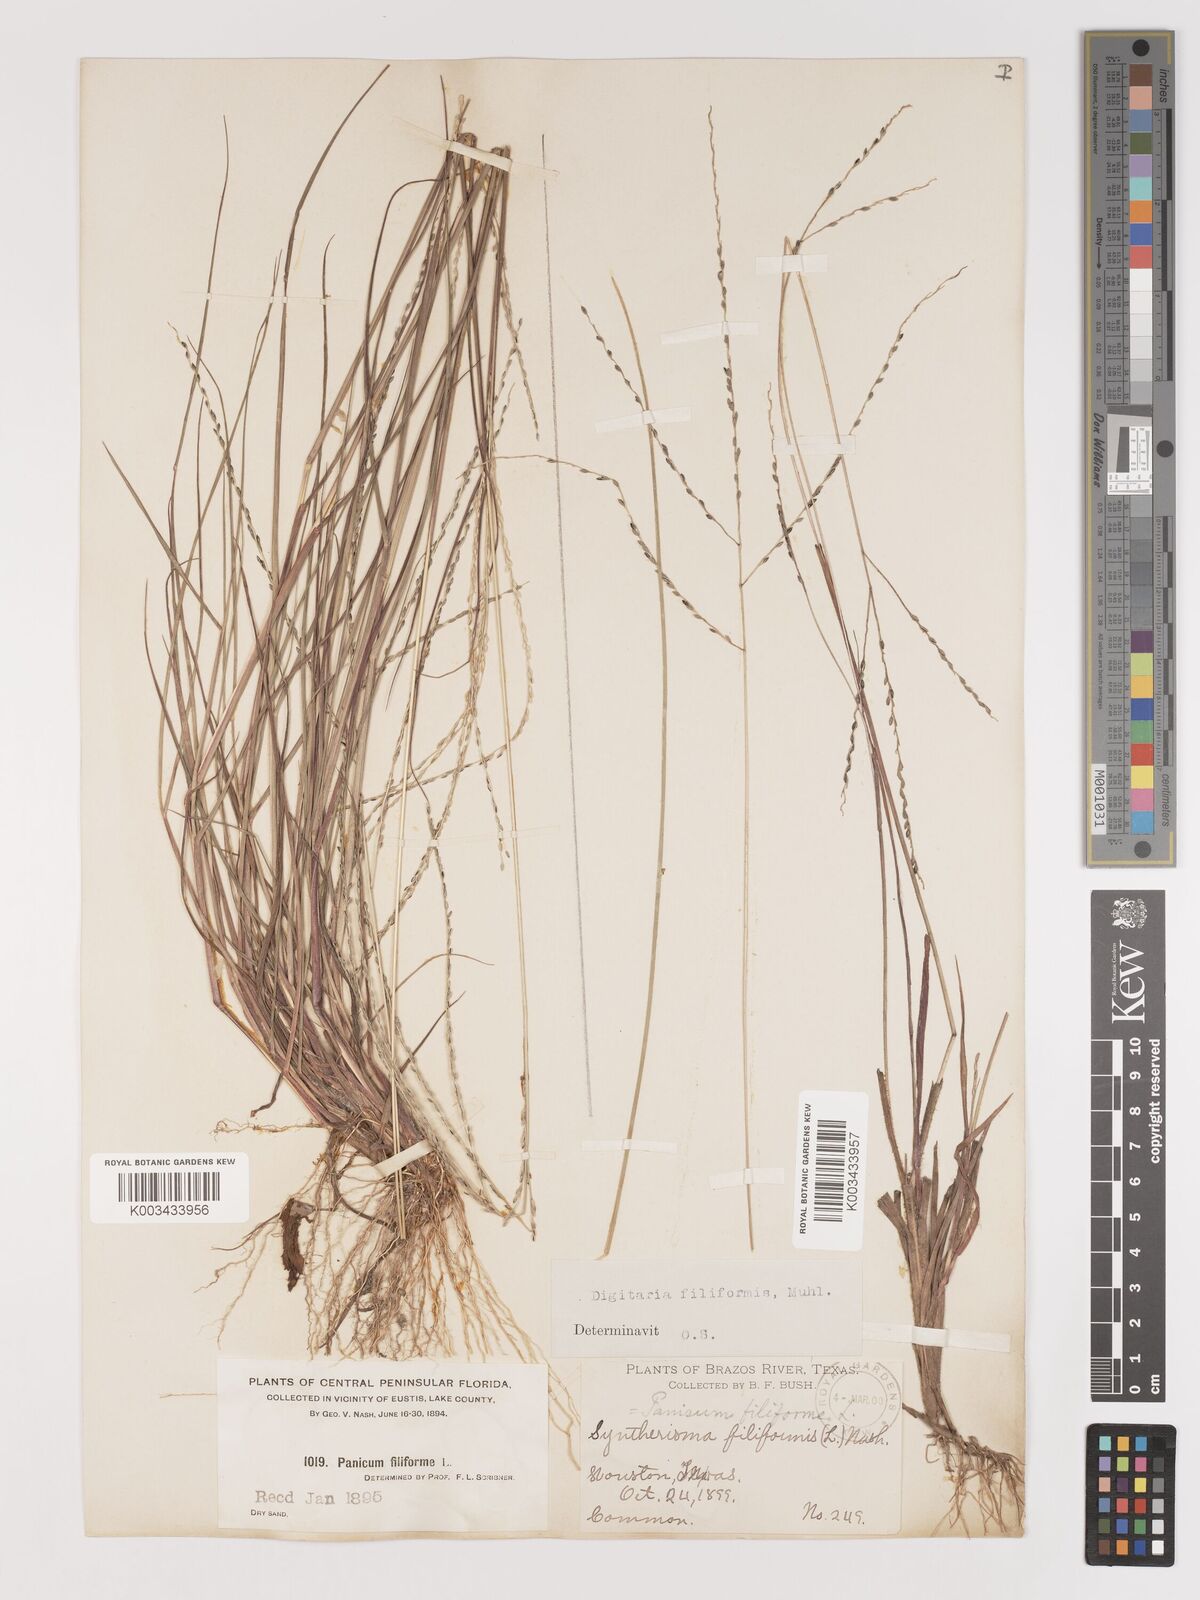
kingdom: Plantae
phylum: Tracheophyta
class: Liliopsida
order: Poales
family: Poaceae
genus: Digitaria
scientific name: Digitaria filiformis
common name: Slender crabgrass
